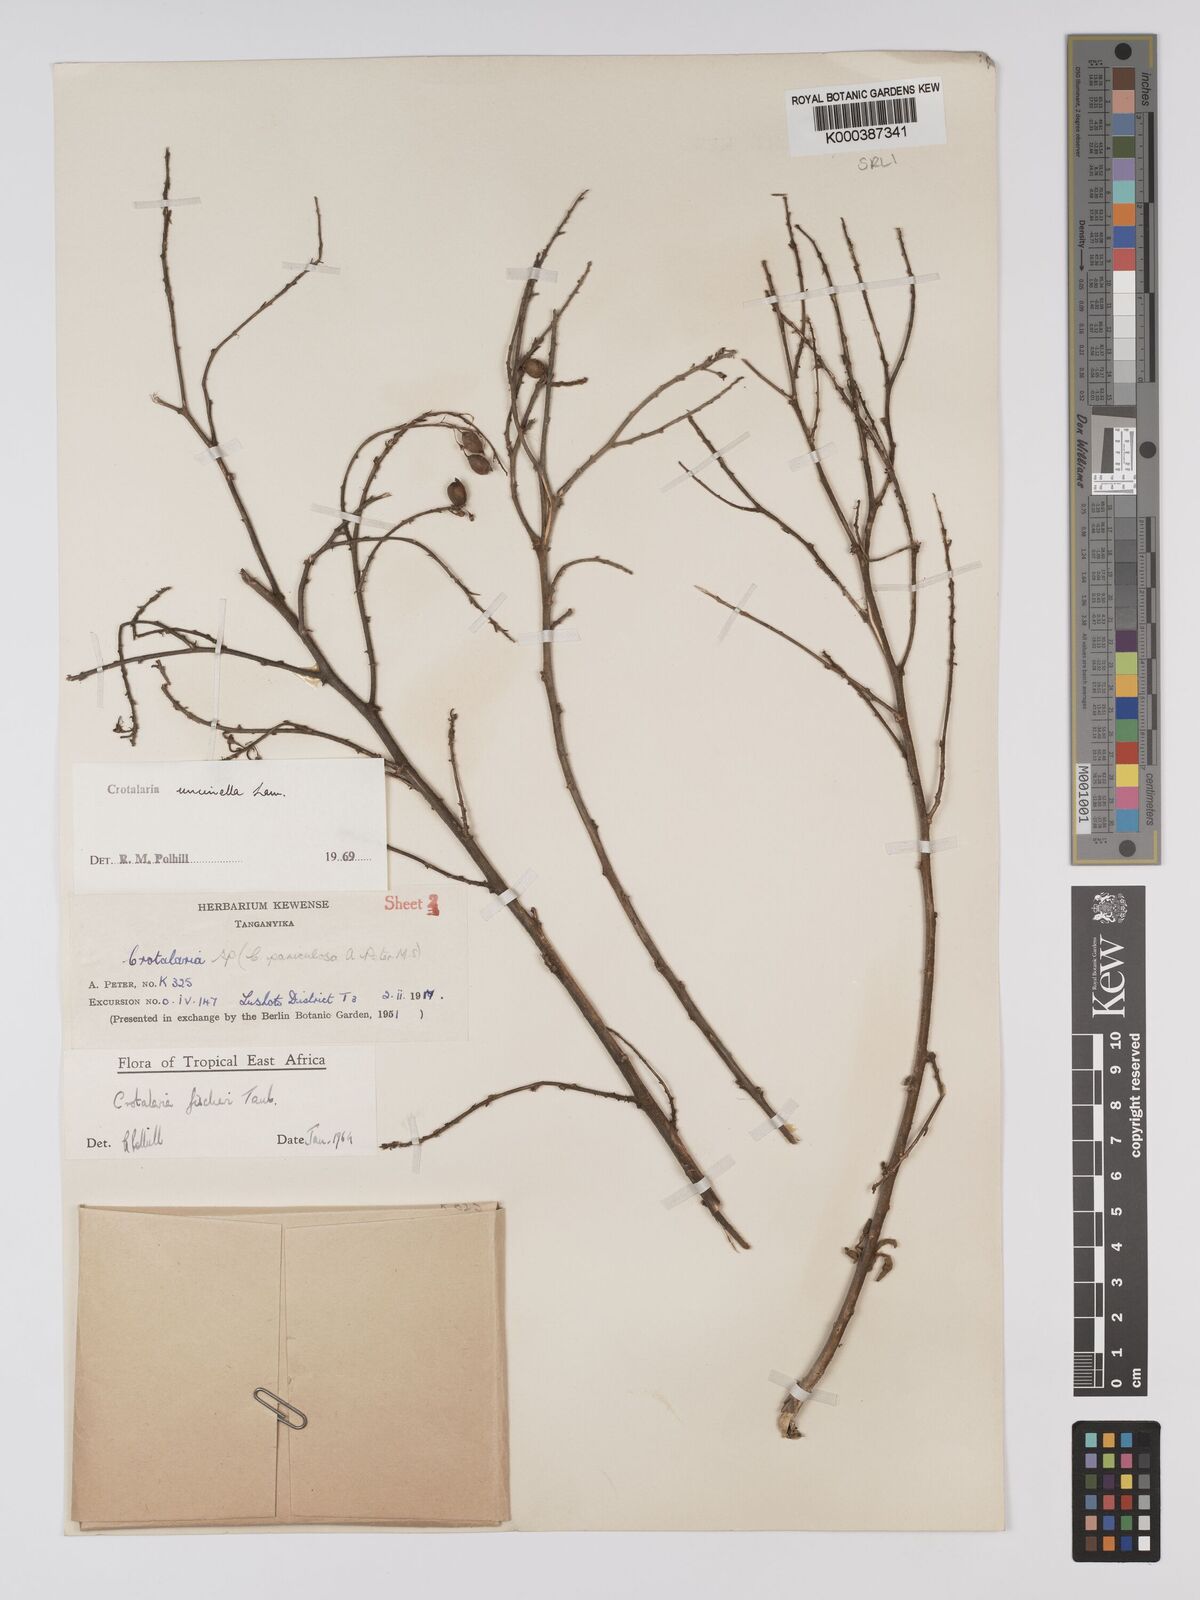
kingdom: Plantae
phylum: Tracheophyta
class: Magnoliopsida
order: Fabales
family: Fabaceae
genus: Crotalaria
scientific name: Crotalaria uncinella
